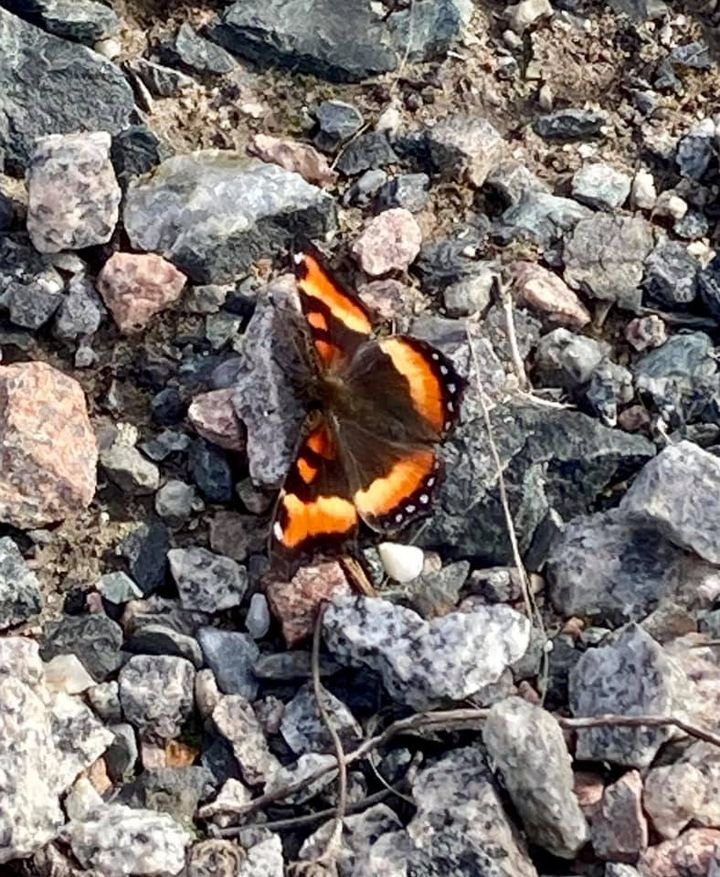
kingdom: Animalia
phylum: Arthropoda
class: Insecta
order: Lepidoptera
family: Nymphalidae
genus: Aglais
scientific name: Aglais milberti
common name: Milbert's Tortoiseshell
